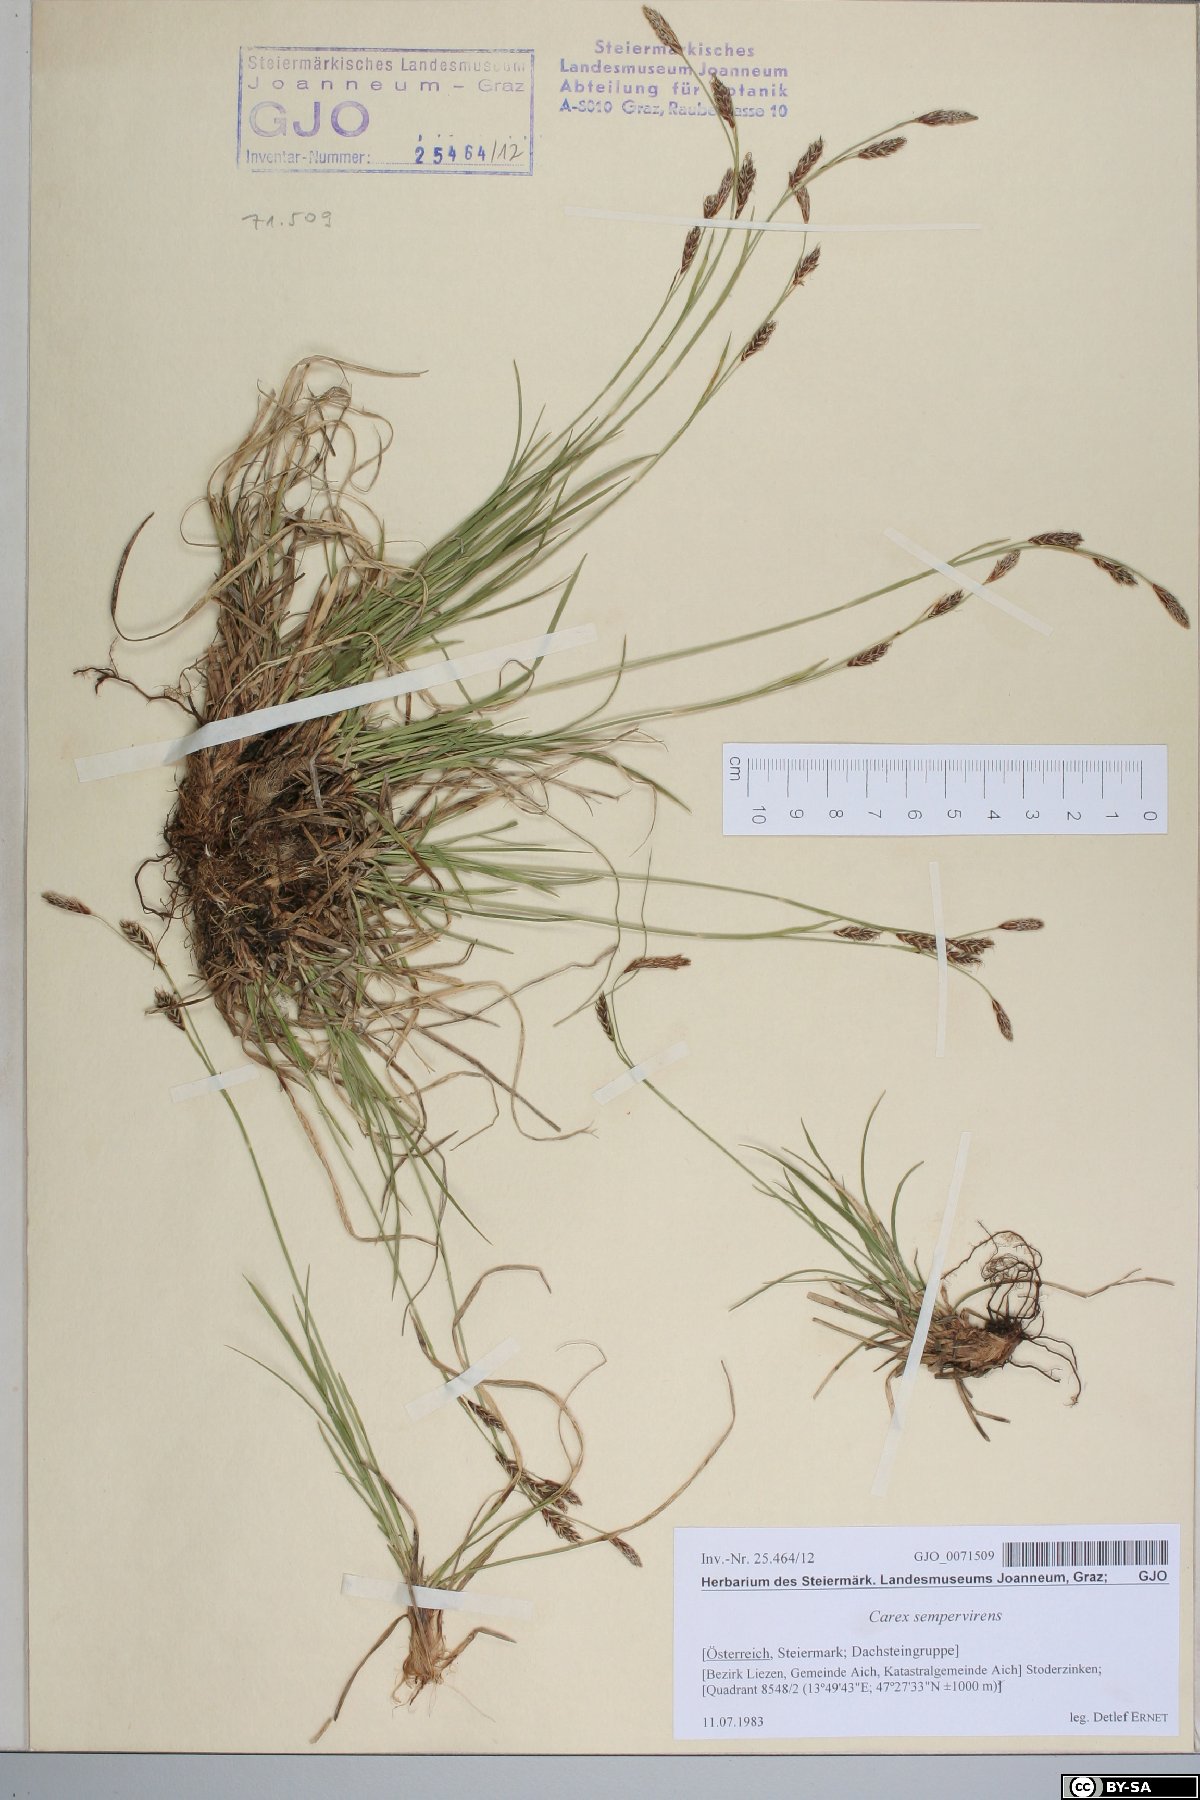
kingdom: Plantae
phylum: Tracheophyta
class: Liliopsida
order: Poales
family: Cyperaceae
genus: Carex
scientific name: Carex sempervirens
